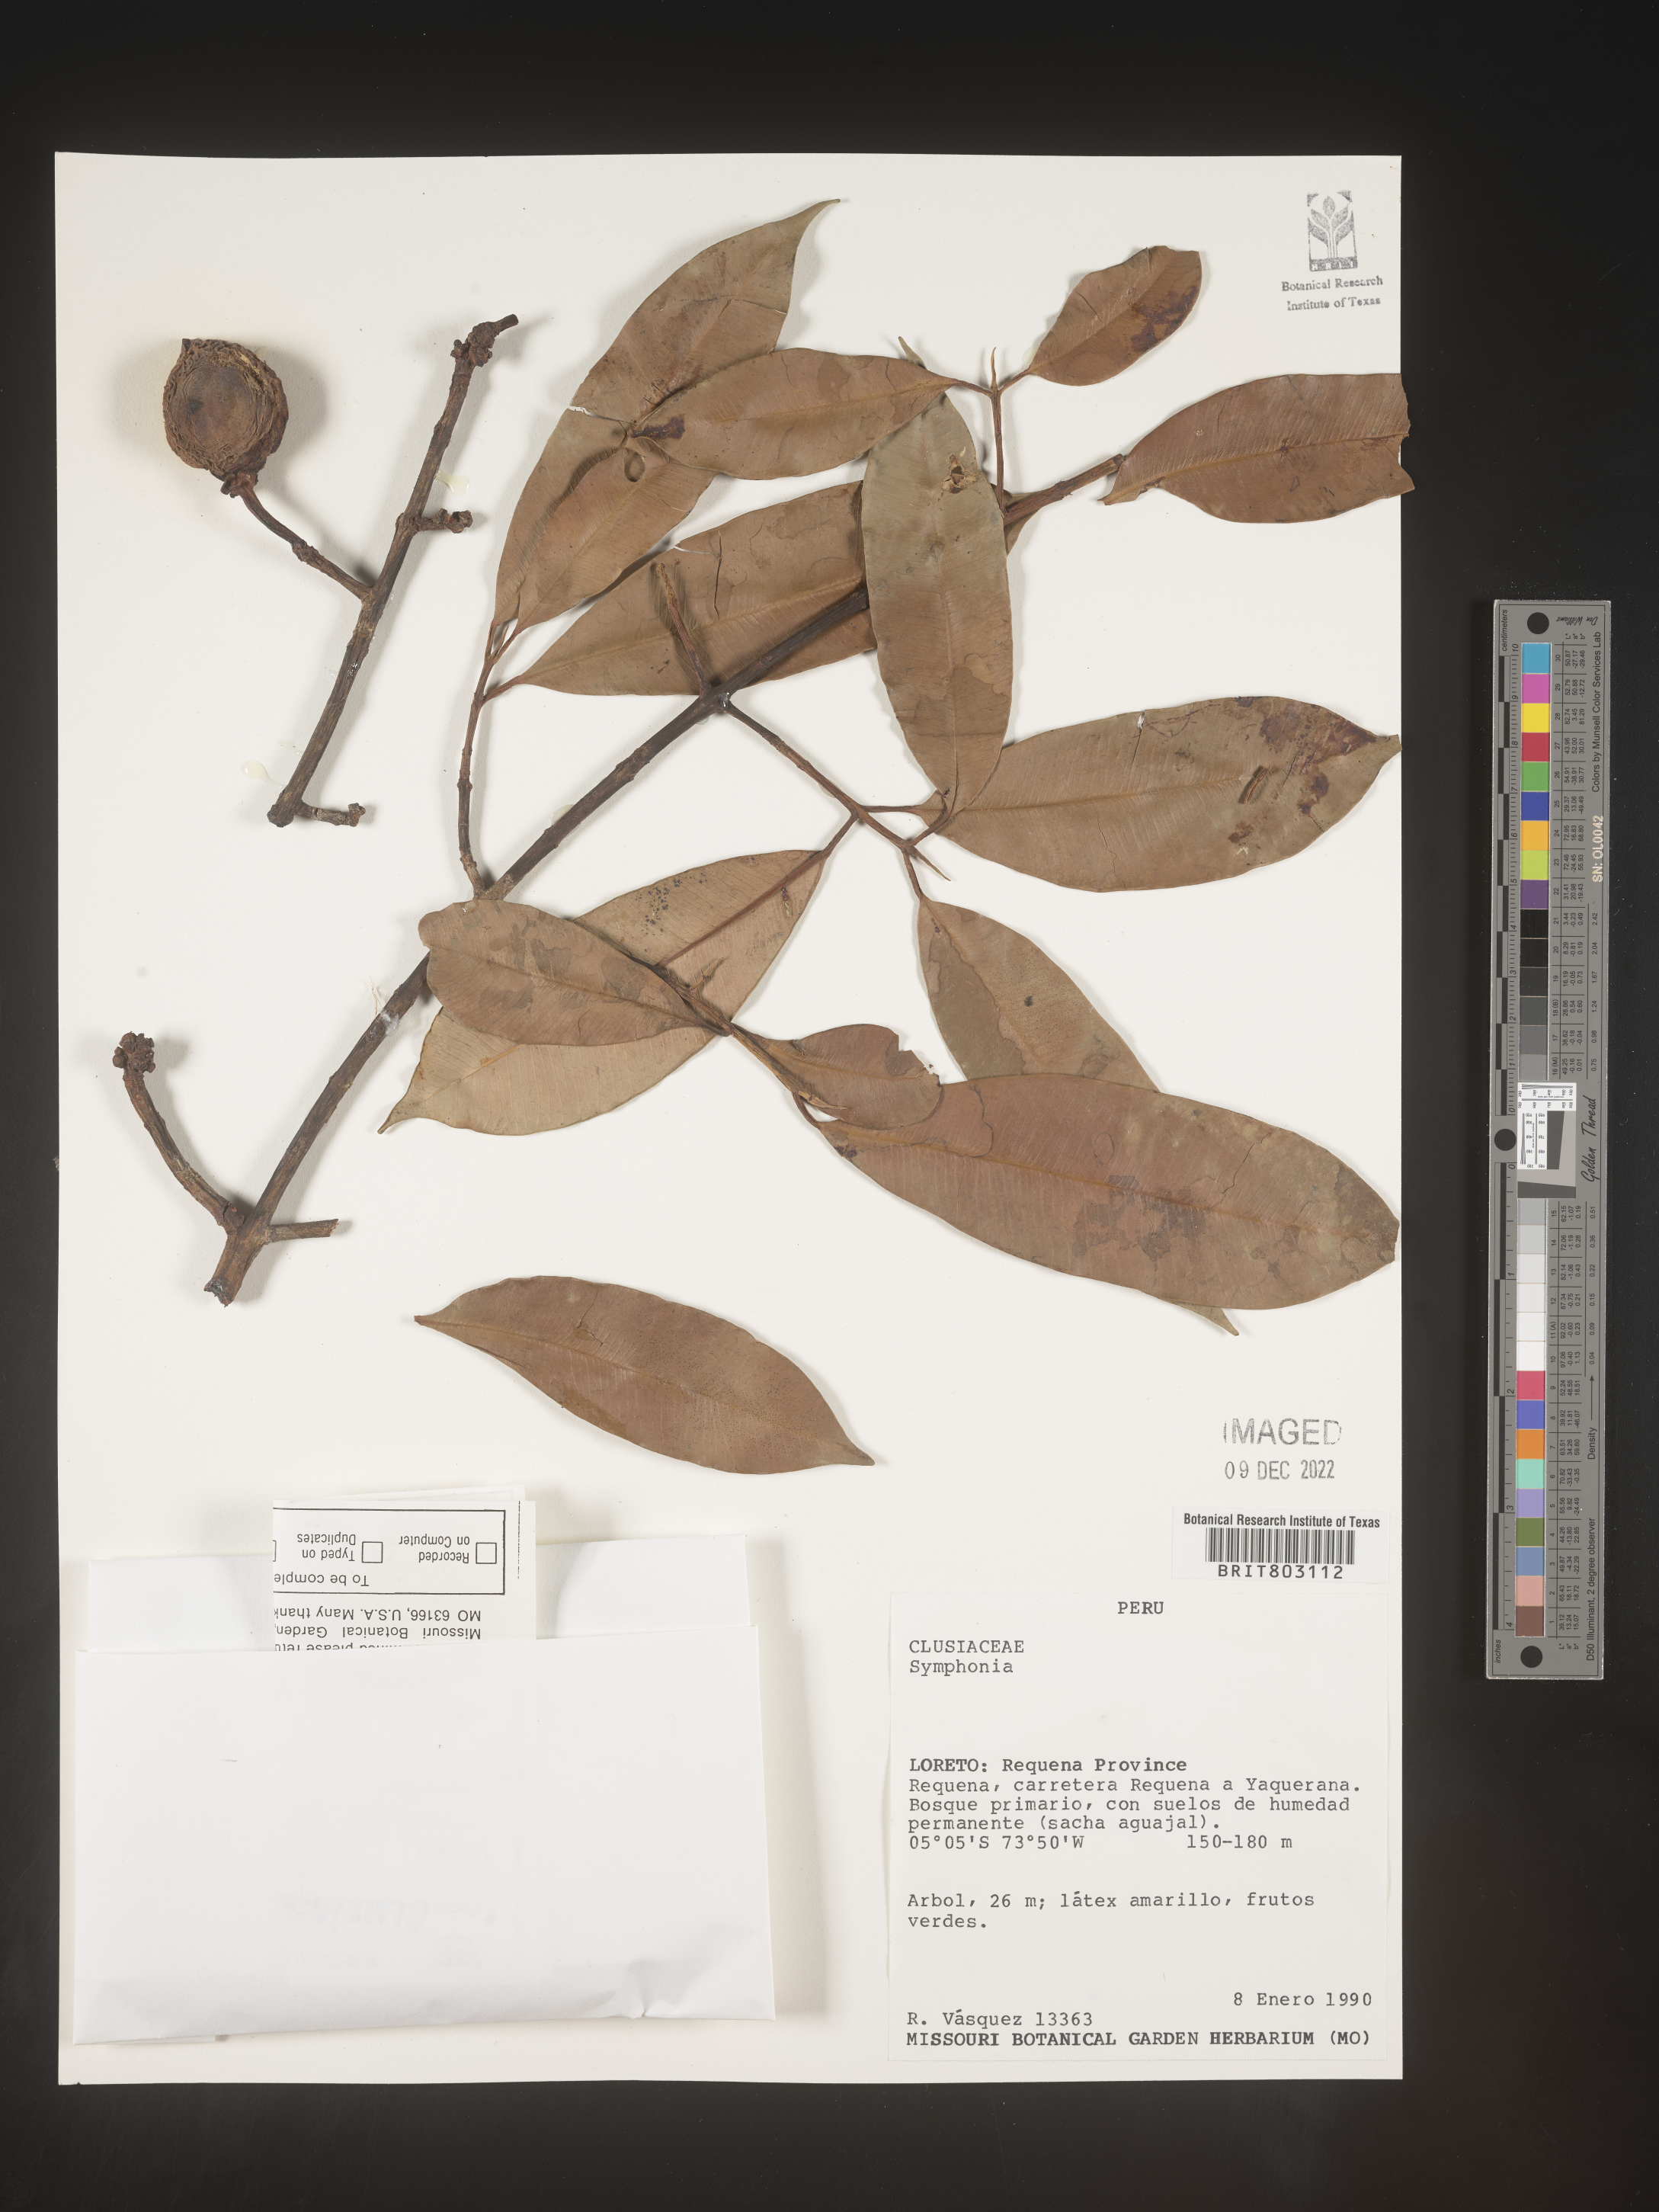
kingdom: Plantae
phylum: Tracheophyta
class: Magnoliopsida
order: Malpighiales
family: Clusiaceae
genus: Symphonia
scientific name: Symphonia
